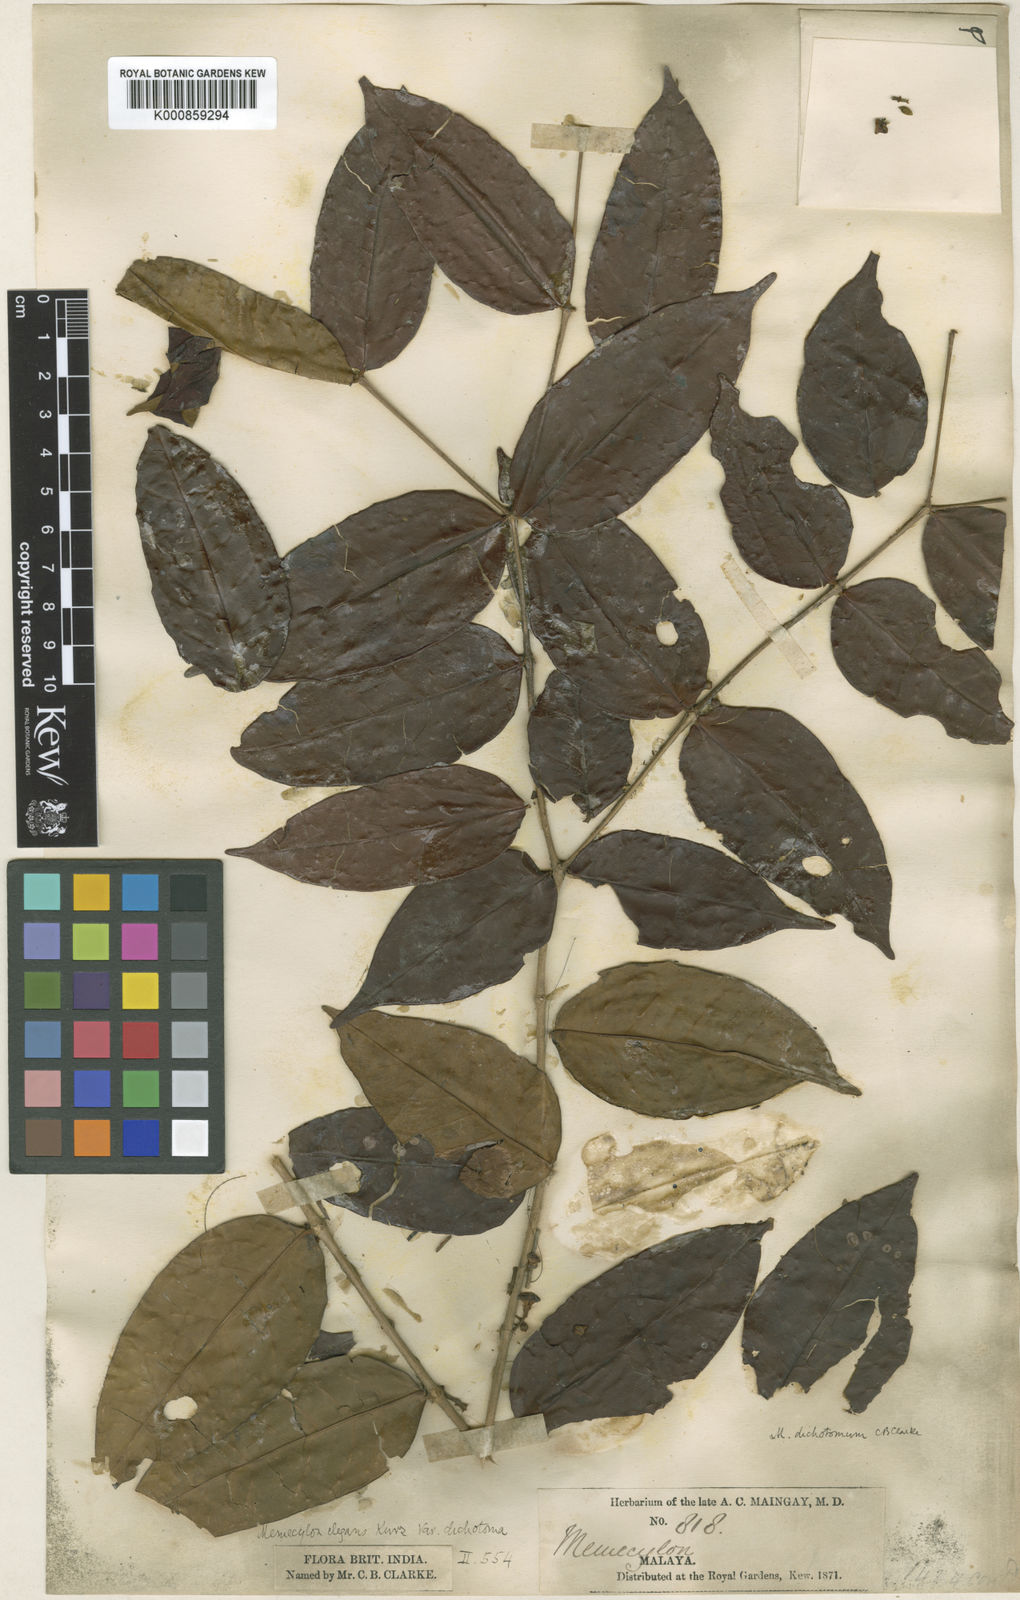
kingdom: Plantae
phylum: Tracheophyta
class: Magnoliopsida
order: Myrtales
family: Melastomataceae
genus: Memecylon
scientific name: Memecylon dichotomum
